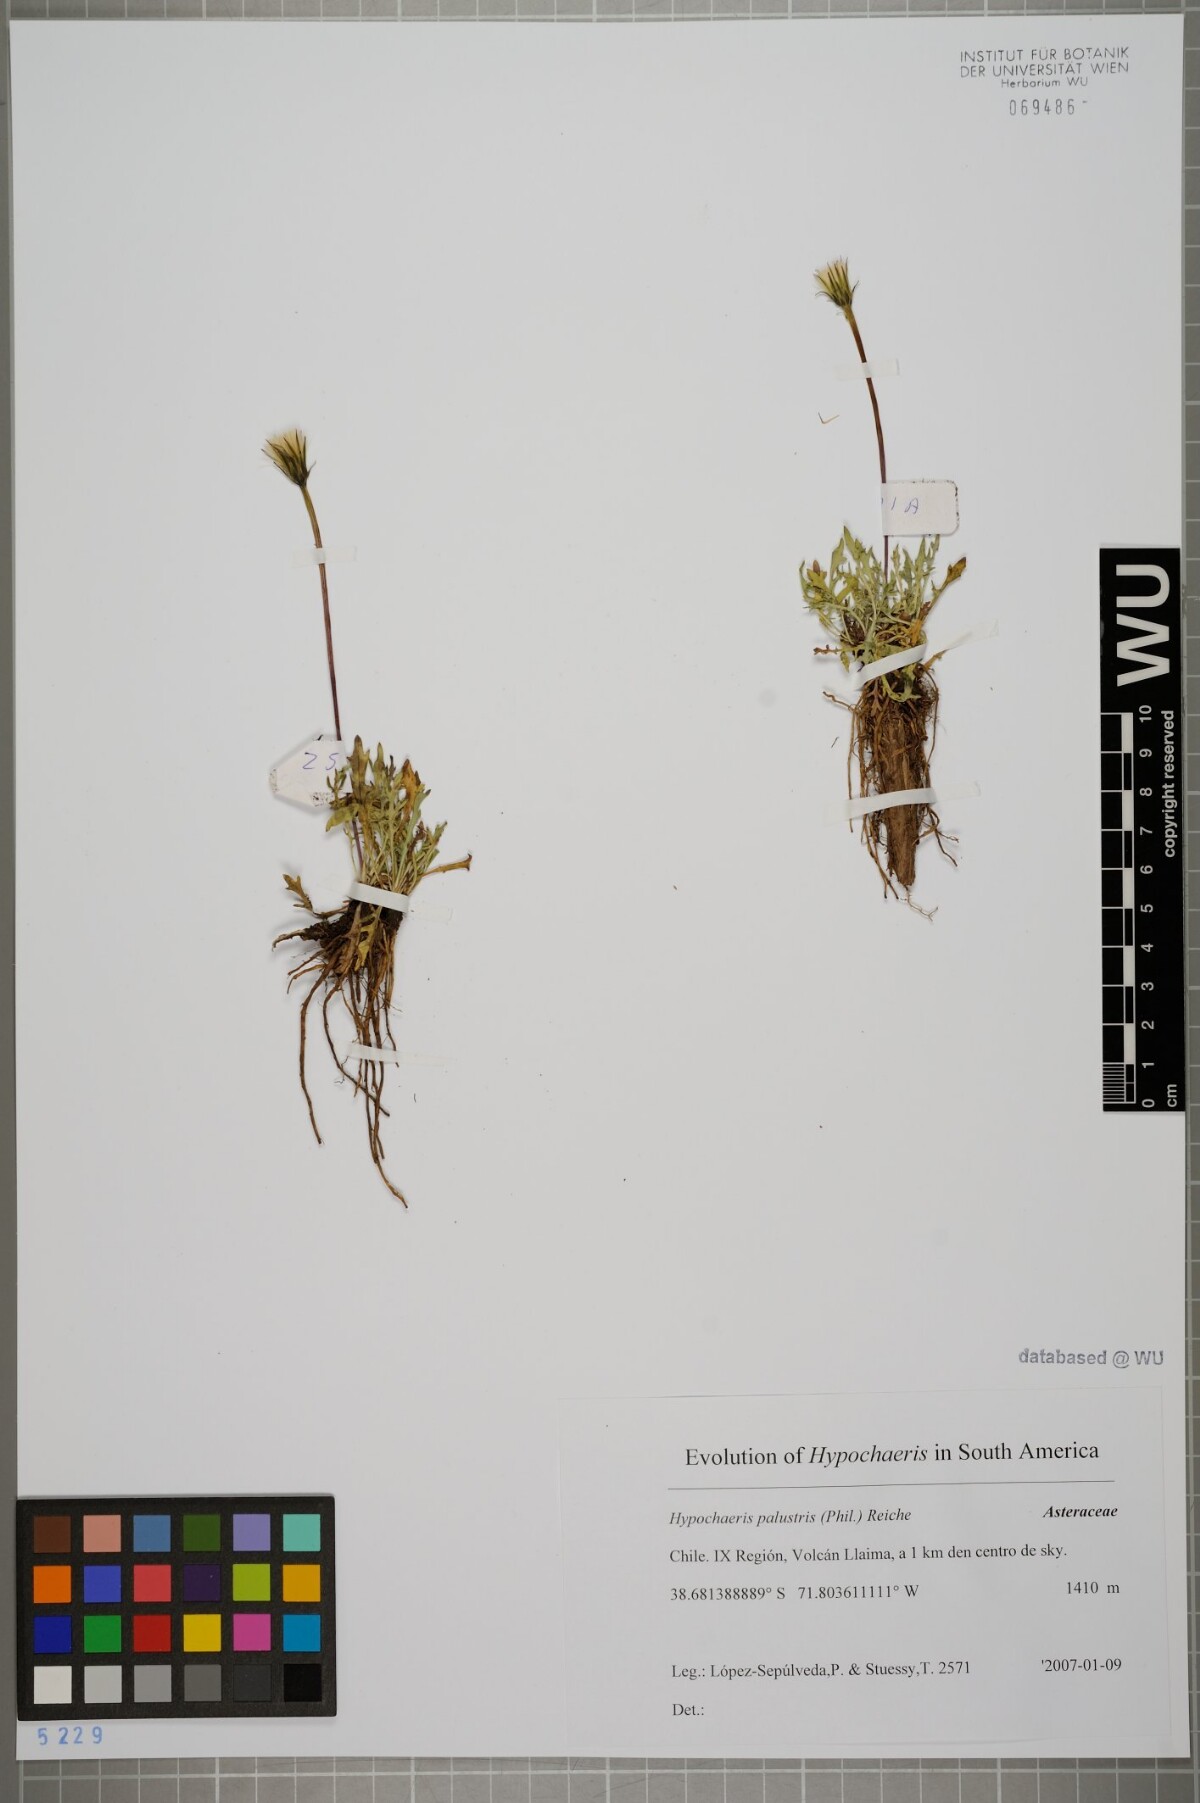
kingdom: Plantae
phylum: Tracheophyta
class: Magnoliopsida
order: Asterales
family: Asteraceae
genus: Hypochaeris
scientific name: Hypochaeris palustris
